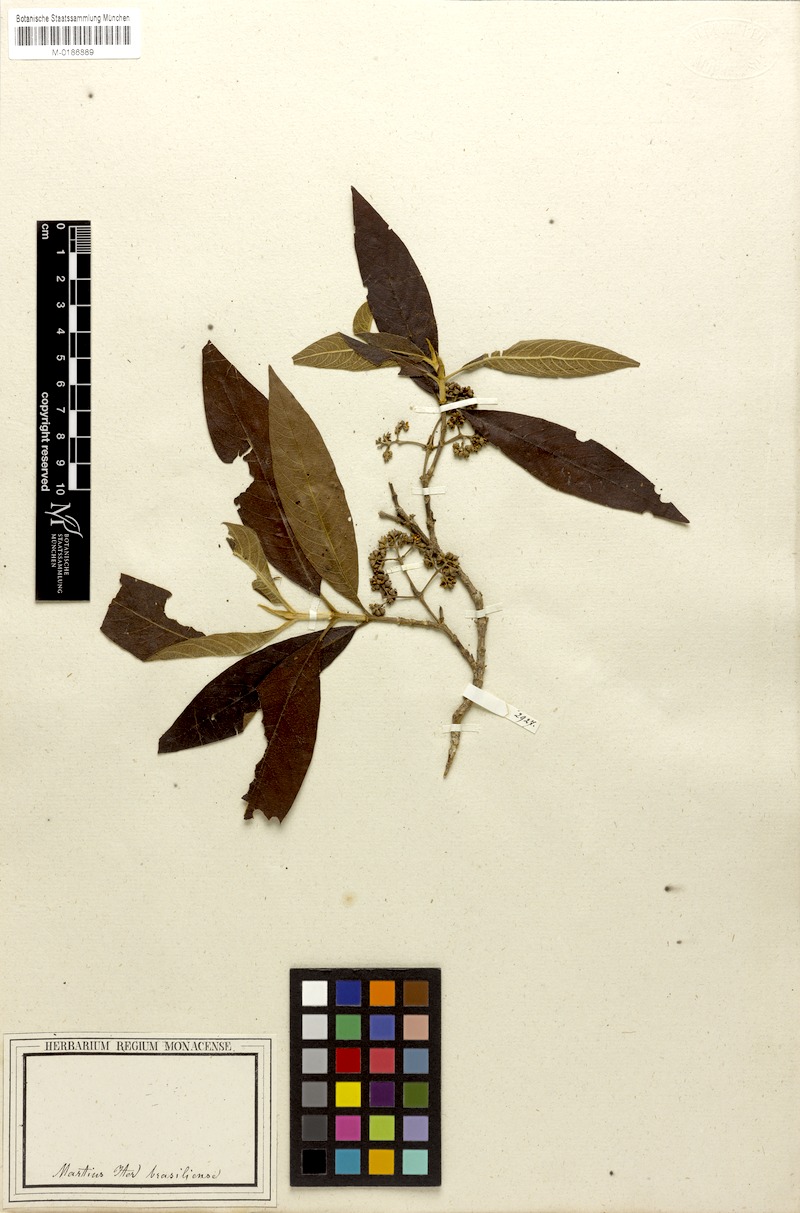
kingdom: Plantae
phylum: Tracheophyta
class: Magnoliopsida
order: Gentianales
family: Rubiaceae
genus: Bathysa
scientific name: Bathysa gymnocarpa
